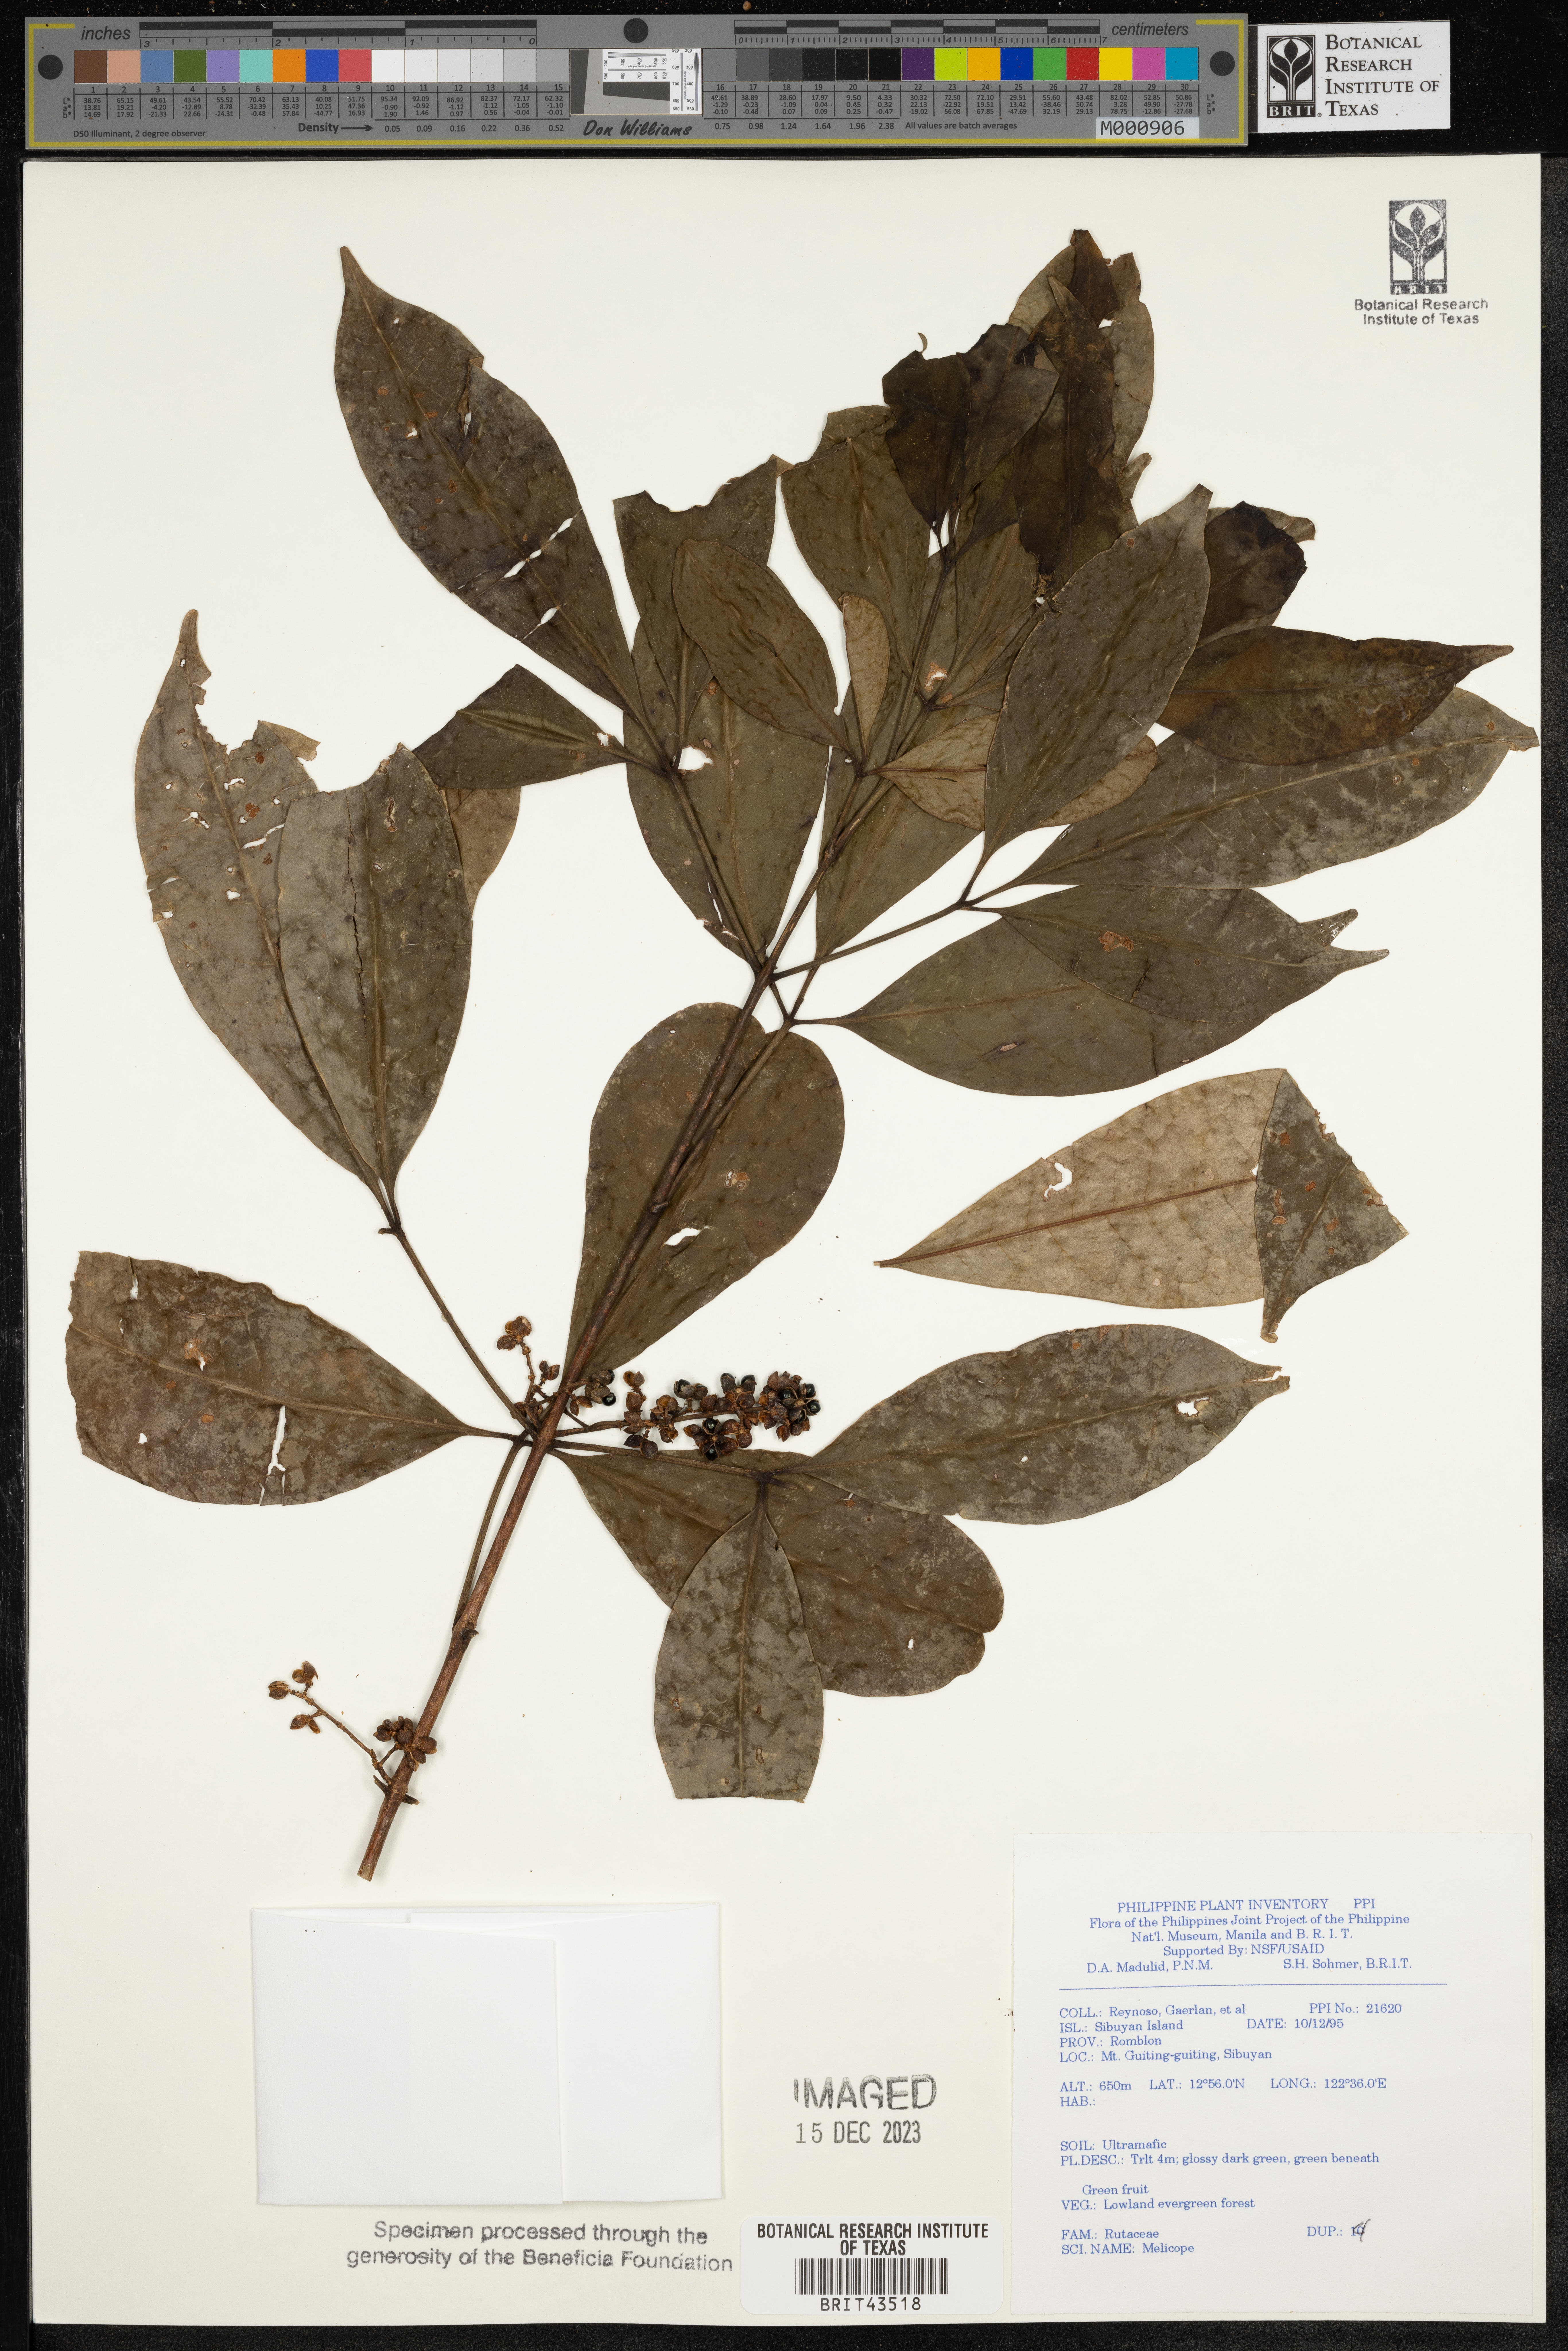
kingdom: Plantae
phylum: Tracheophyta
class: Magnoliopsida
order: Sapindales
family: Rutaceae
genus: Melicope
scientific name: Melicope
